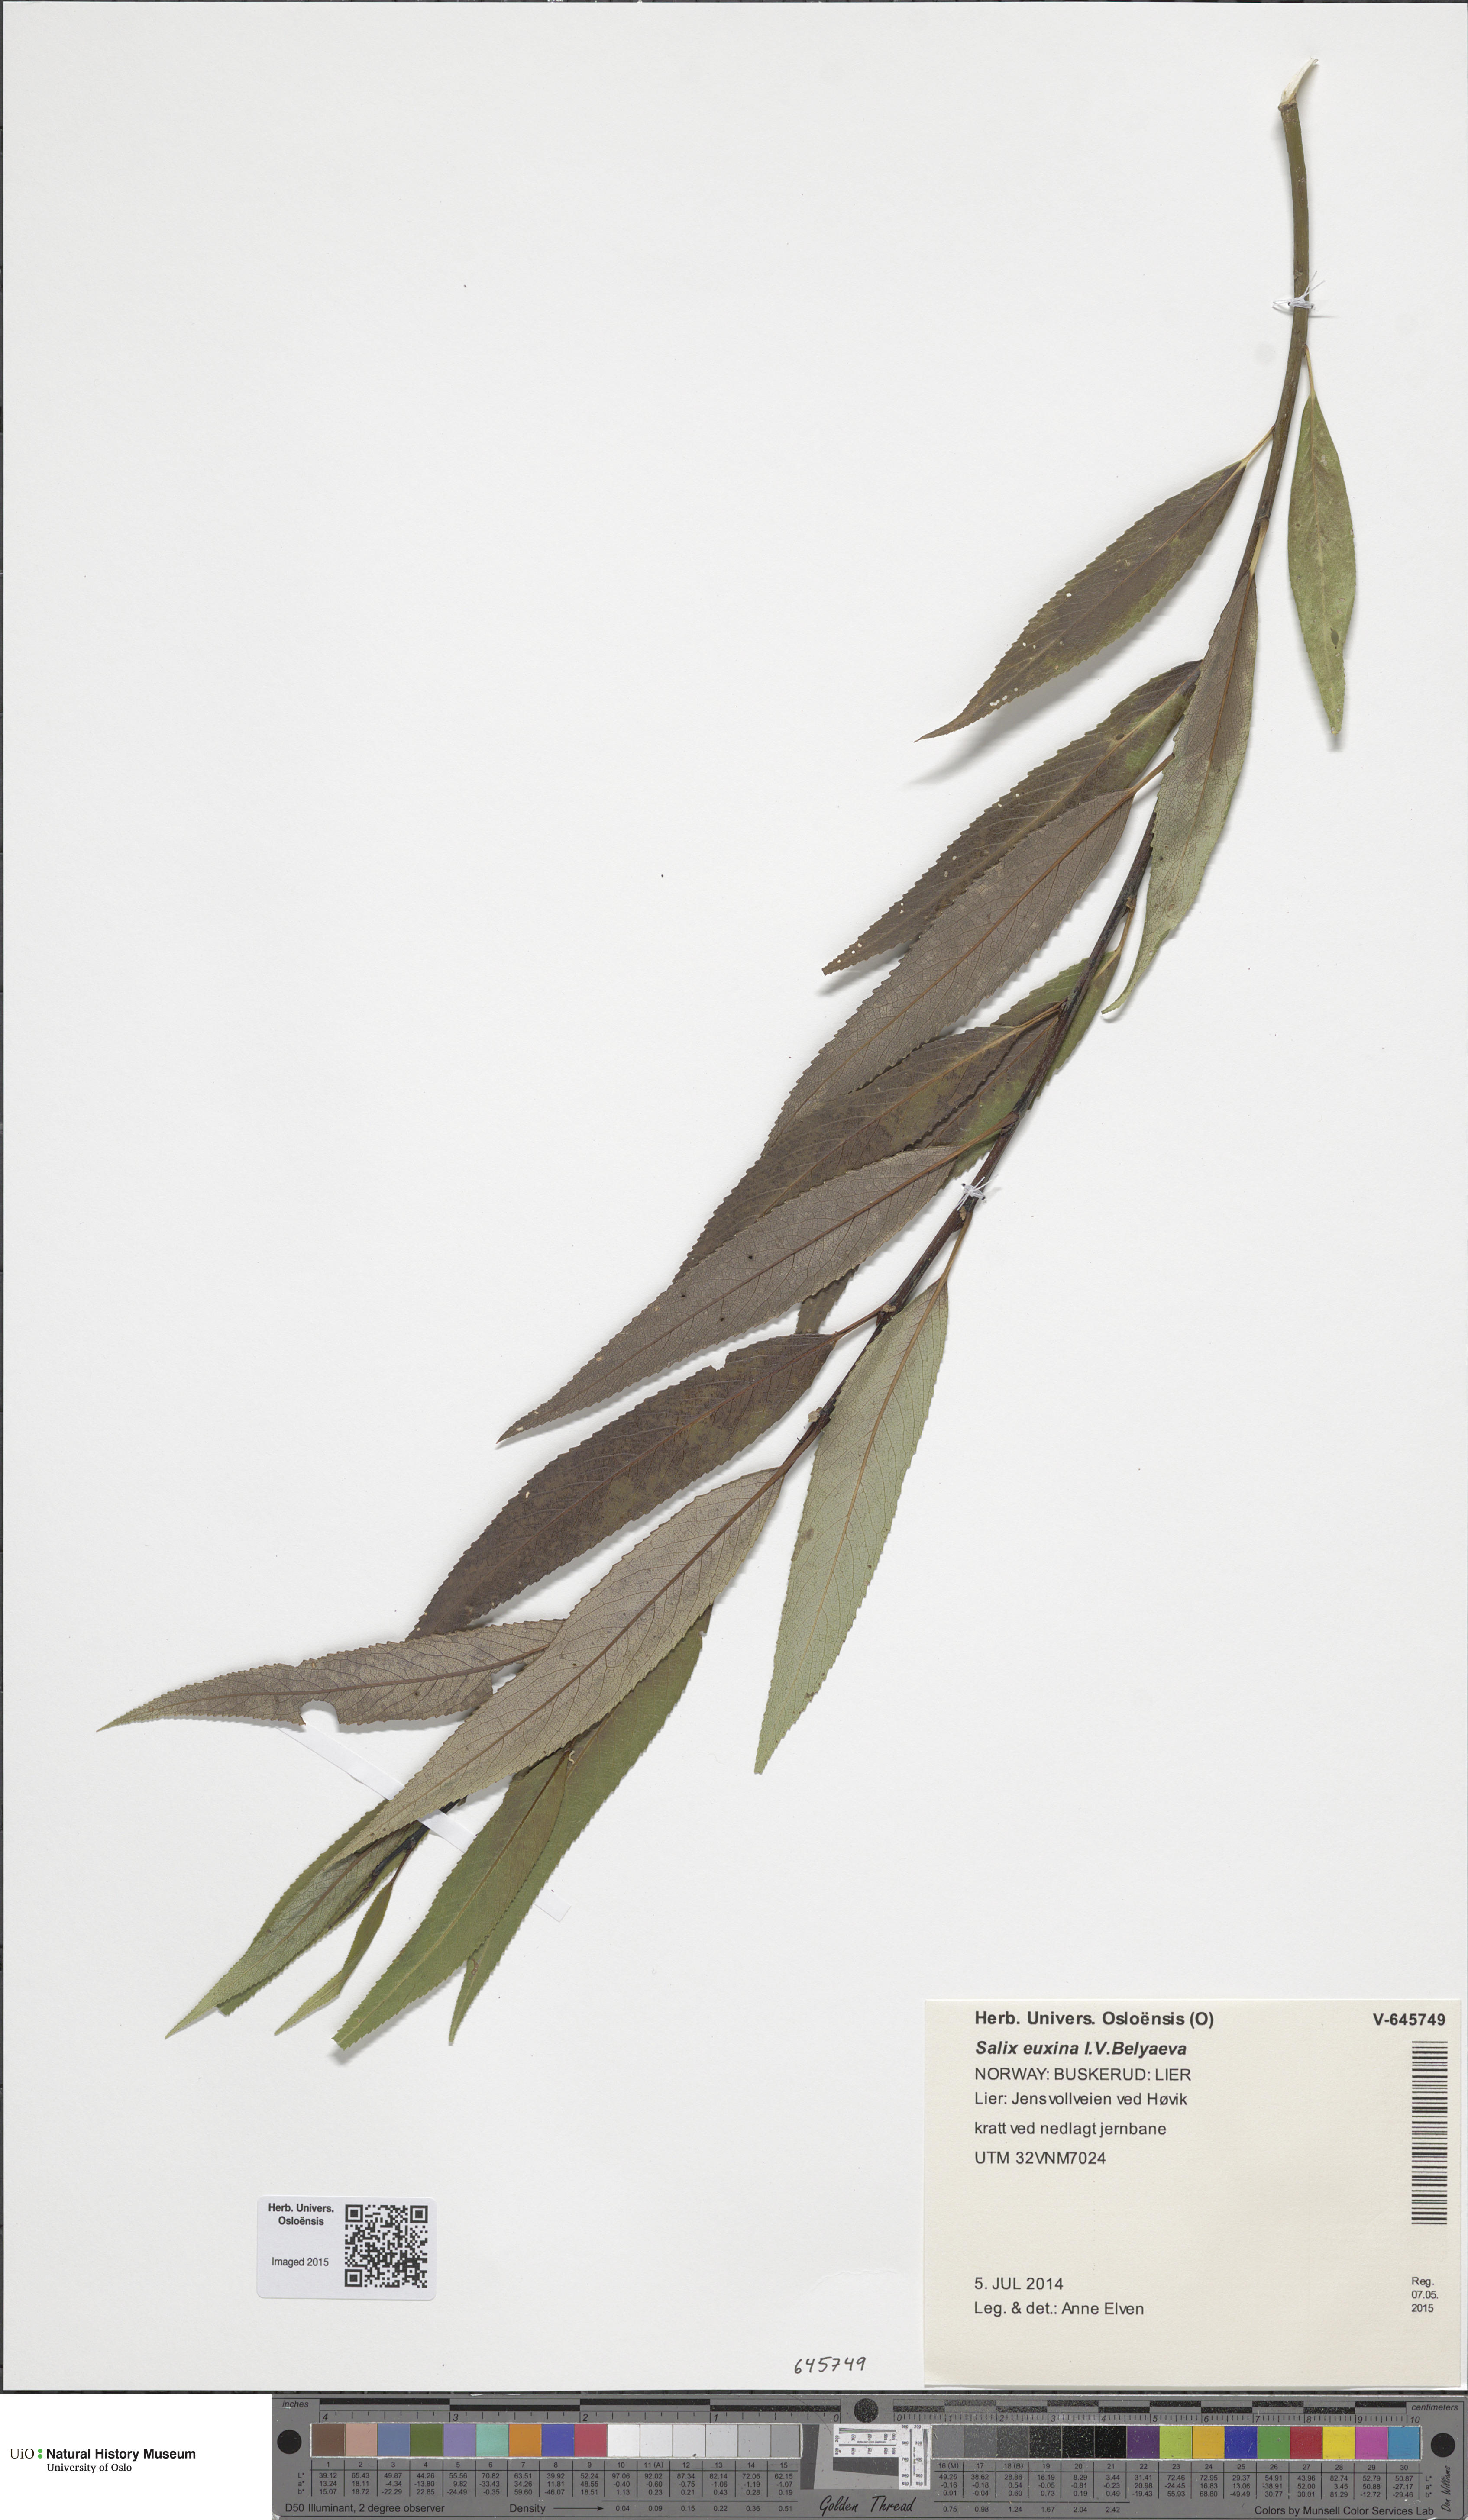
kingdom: Plantae
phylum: Tracheophyta
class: Magnoliopsida
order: Malpighiales
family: Salicaceae
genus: Salix
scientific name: Salix fragilis
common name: Crack willow
